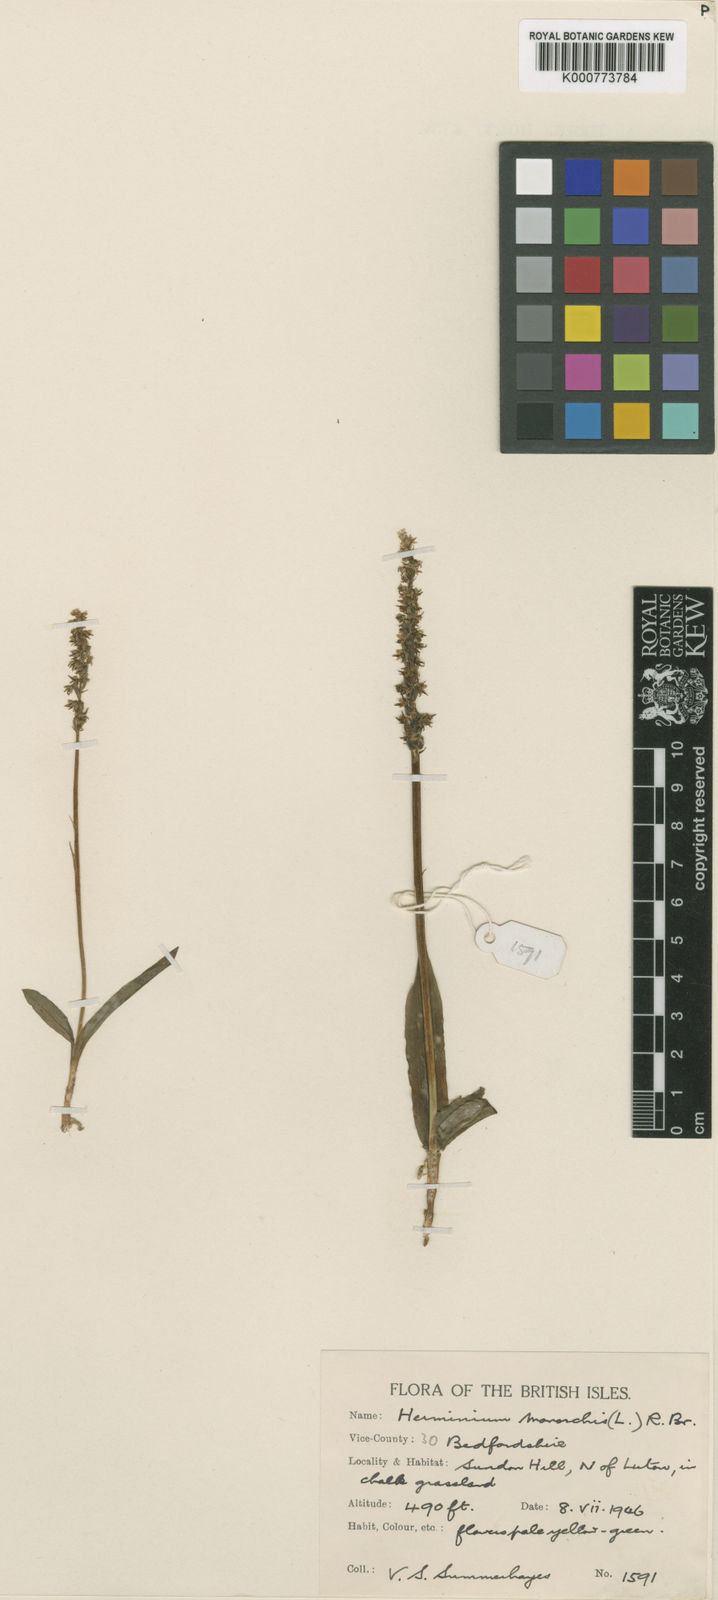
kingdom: Plantae
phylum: Tracheophyta
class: Liliopsida
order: Asparagales
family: Orchidaceae
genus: Herminium
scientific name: Herminium monorchis
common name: Musk orchid
